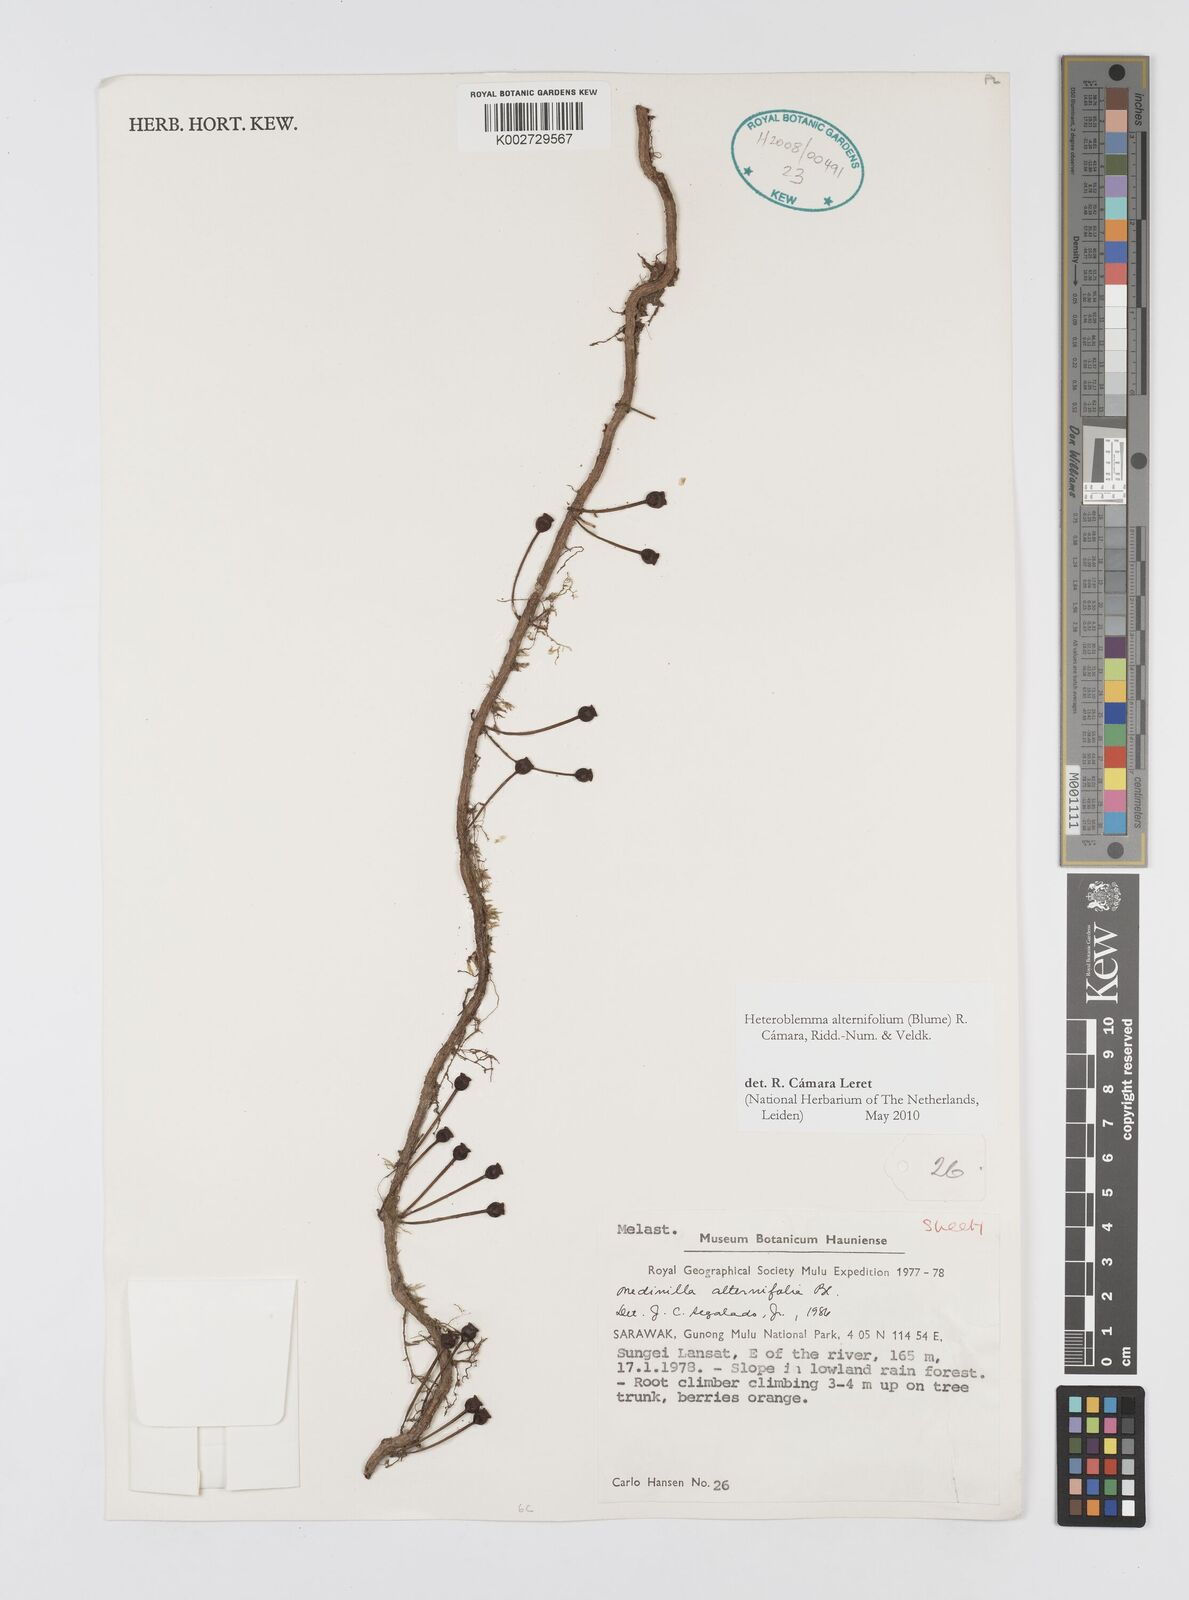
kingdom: Plantae
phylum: Tracheophyta
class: Magnoliopsida
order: Myrtales
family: Melastomataceae
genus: Heteroblemma
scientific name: Heteroblemma alternifolium
